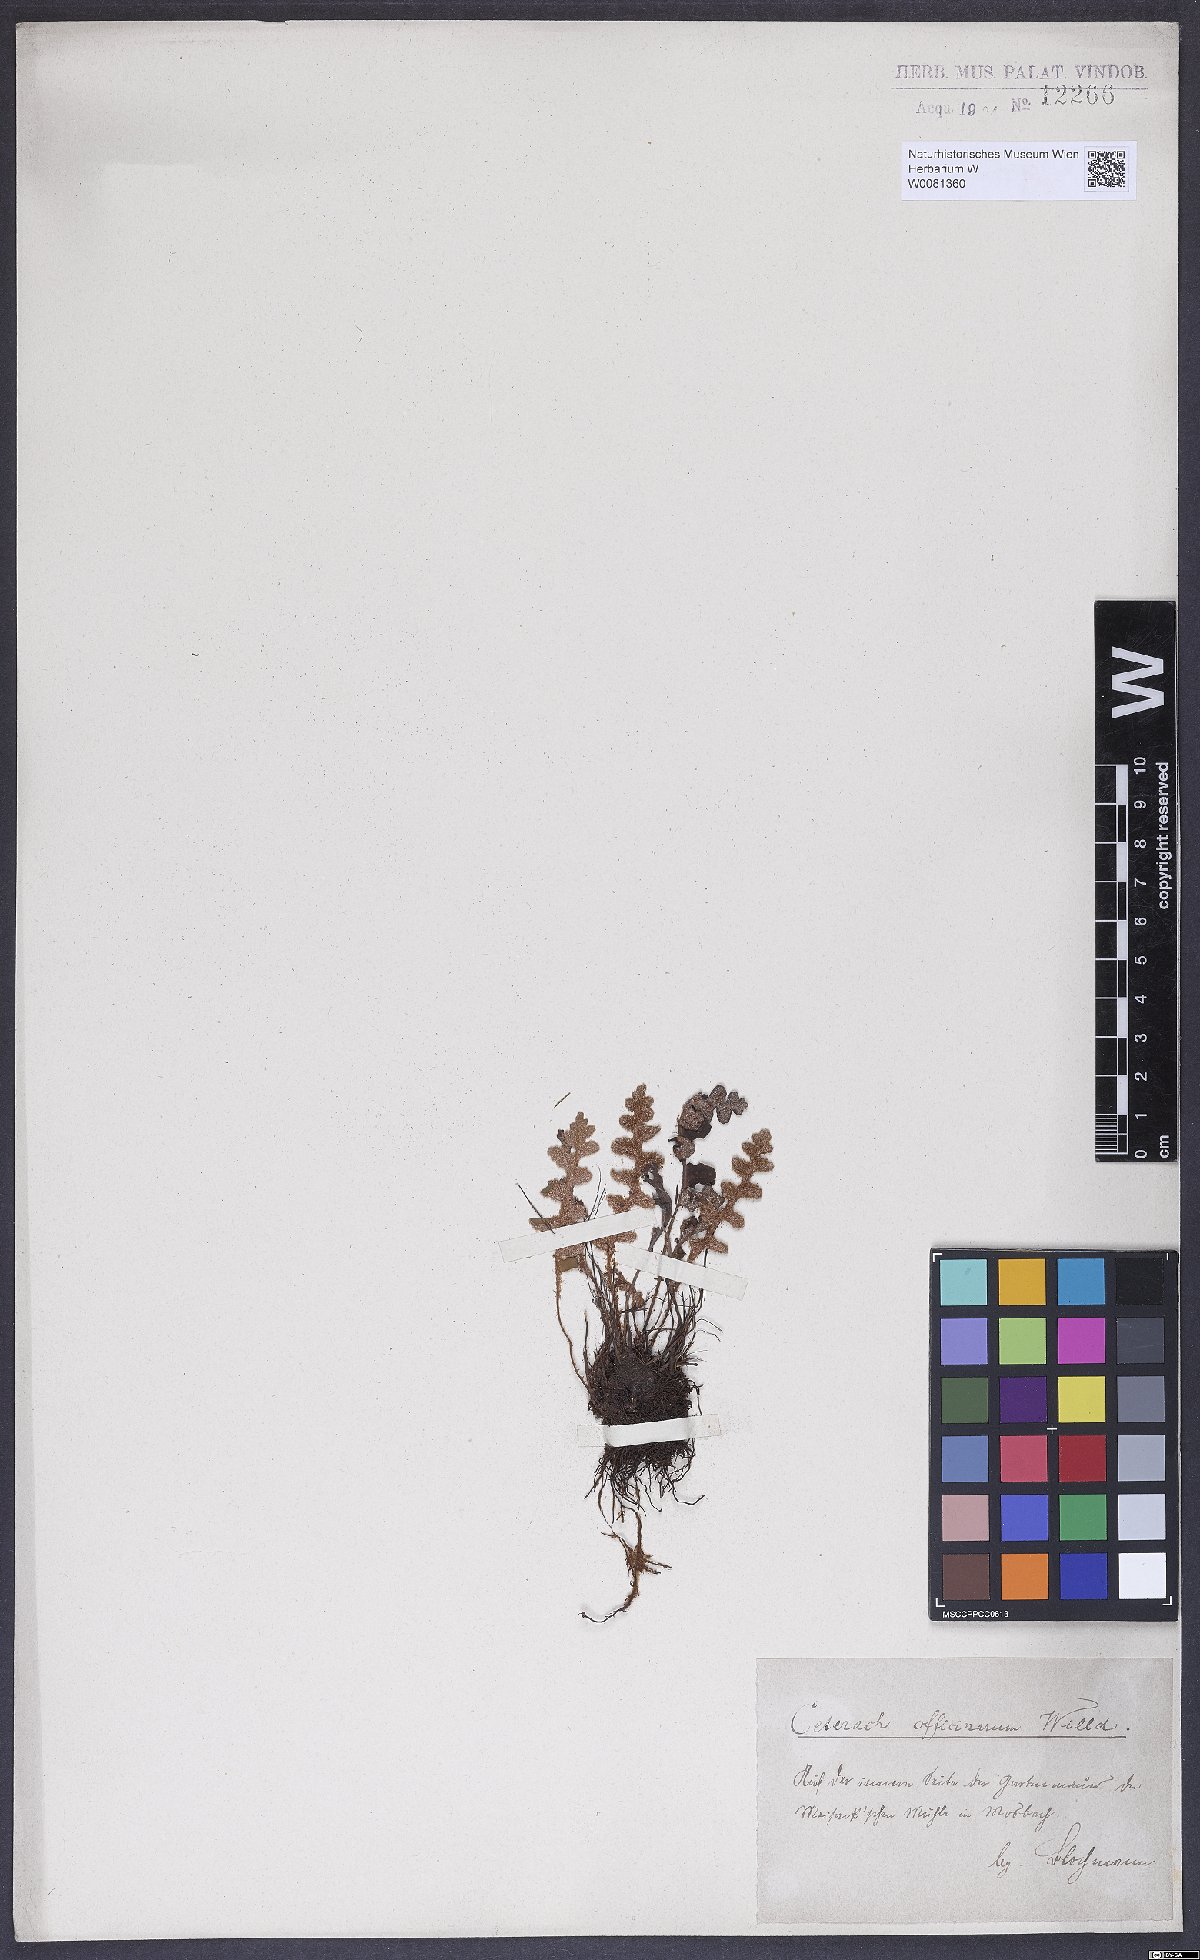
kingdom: Plantae
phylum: Tracheophyta
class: Polypodiopsida
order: Polypodiales
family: Aspleniaceae
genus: Asplenium
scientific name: Asplenium ceterach
